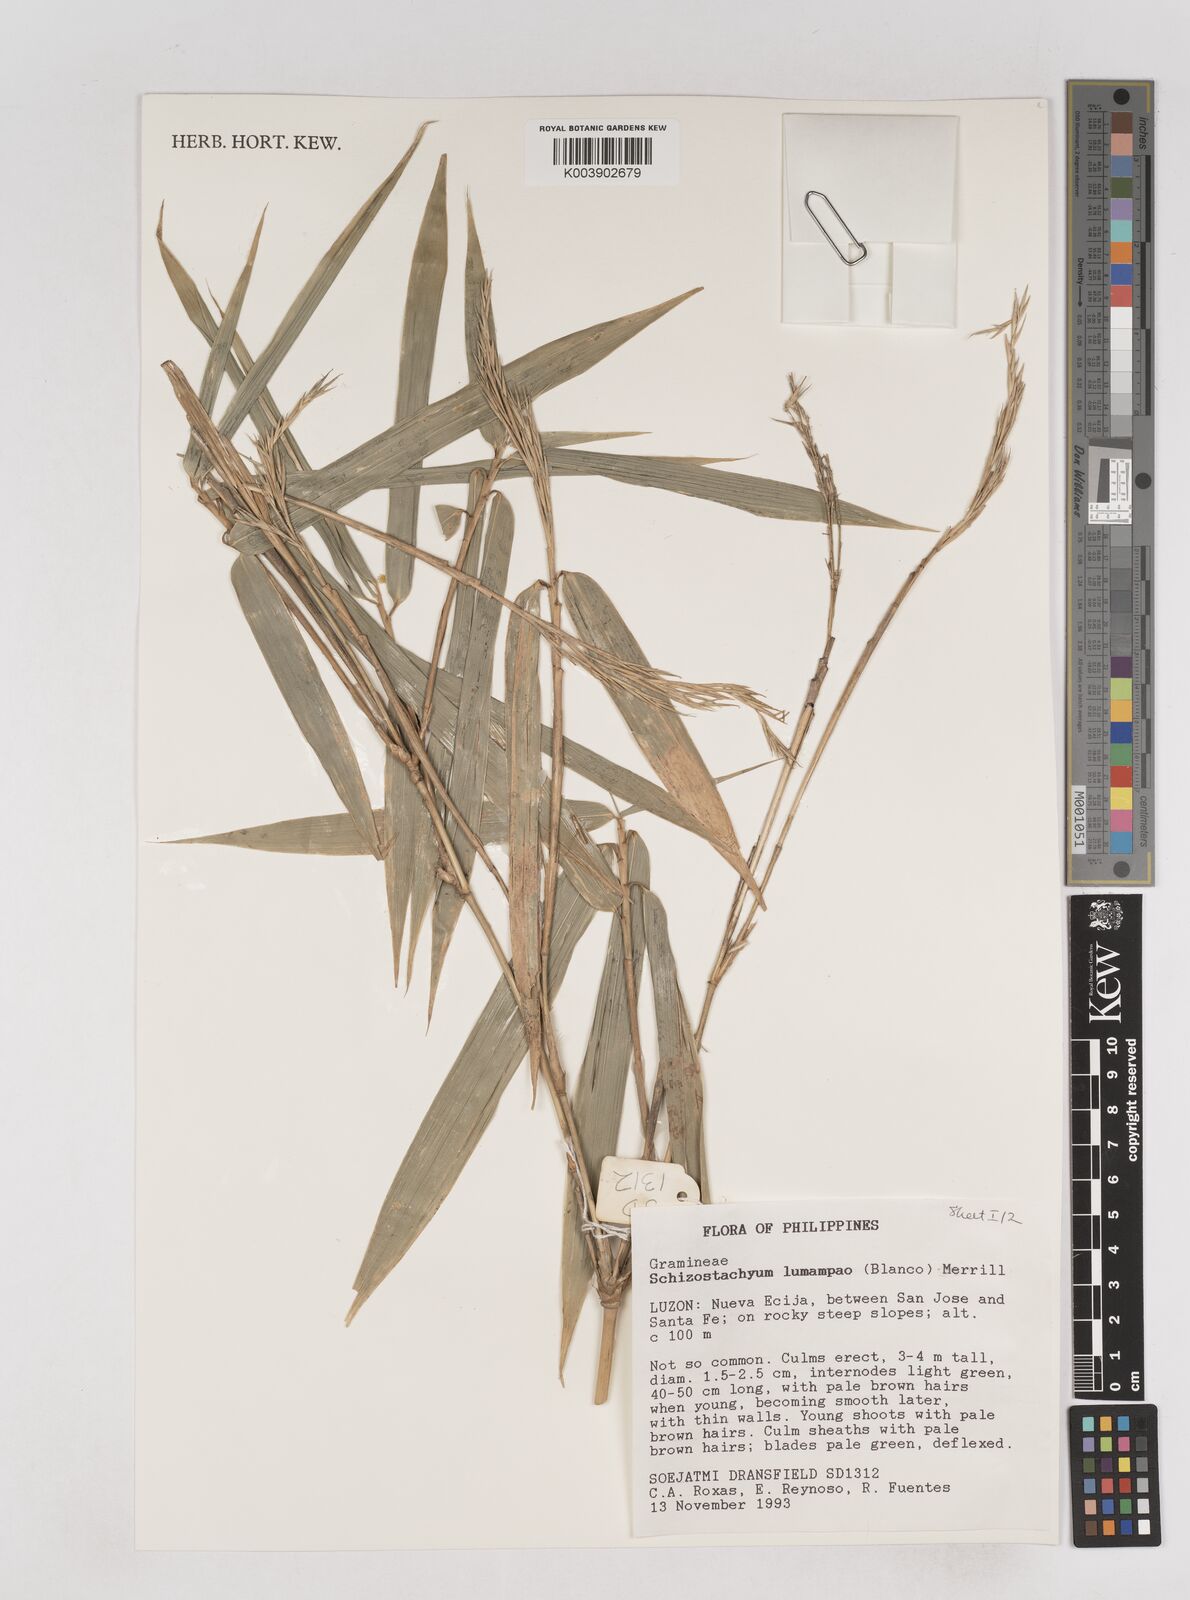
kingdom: Plantae
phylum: Tracheophyta
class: Liliopsida
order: Poales
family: Poaceae
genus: Schizostachyum
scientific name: Schizostachyum lumampao
